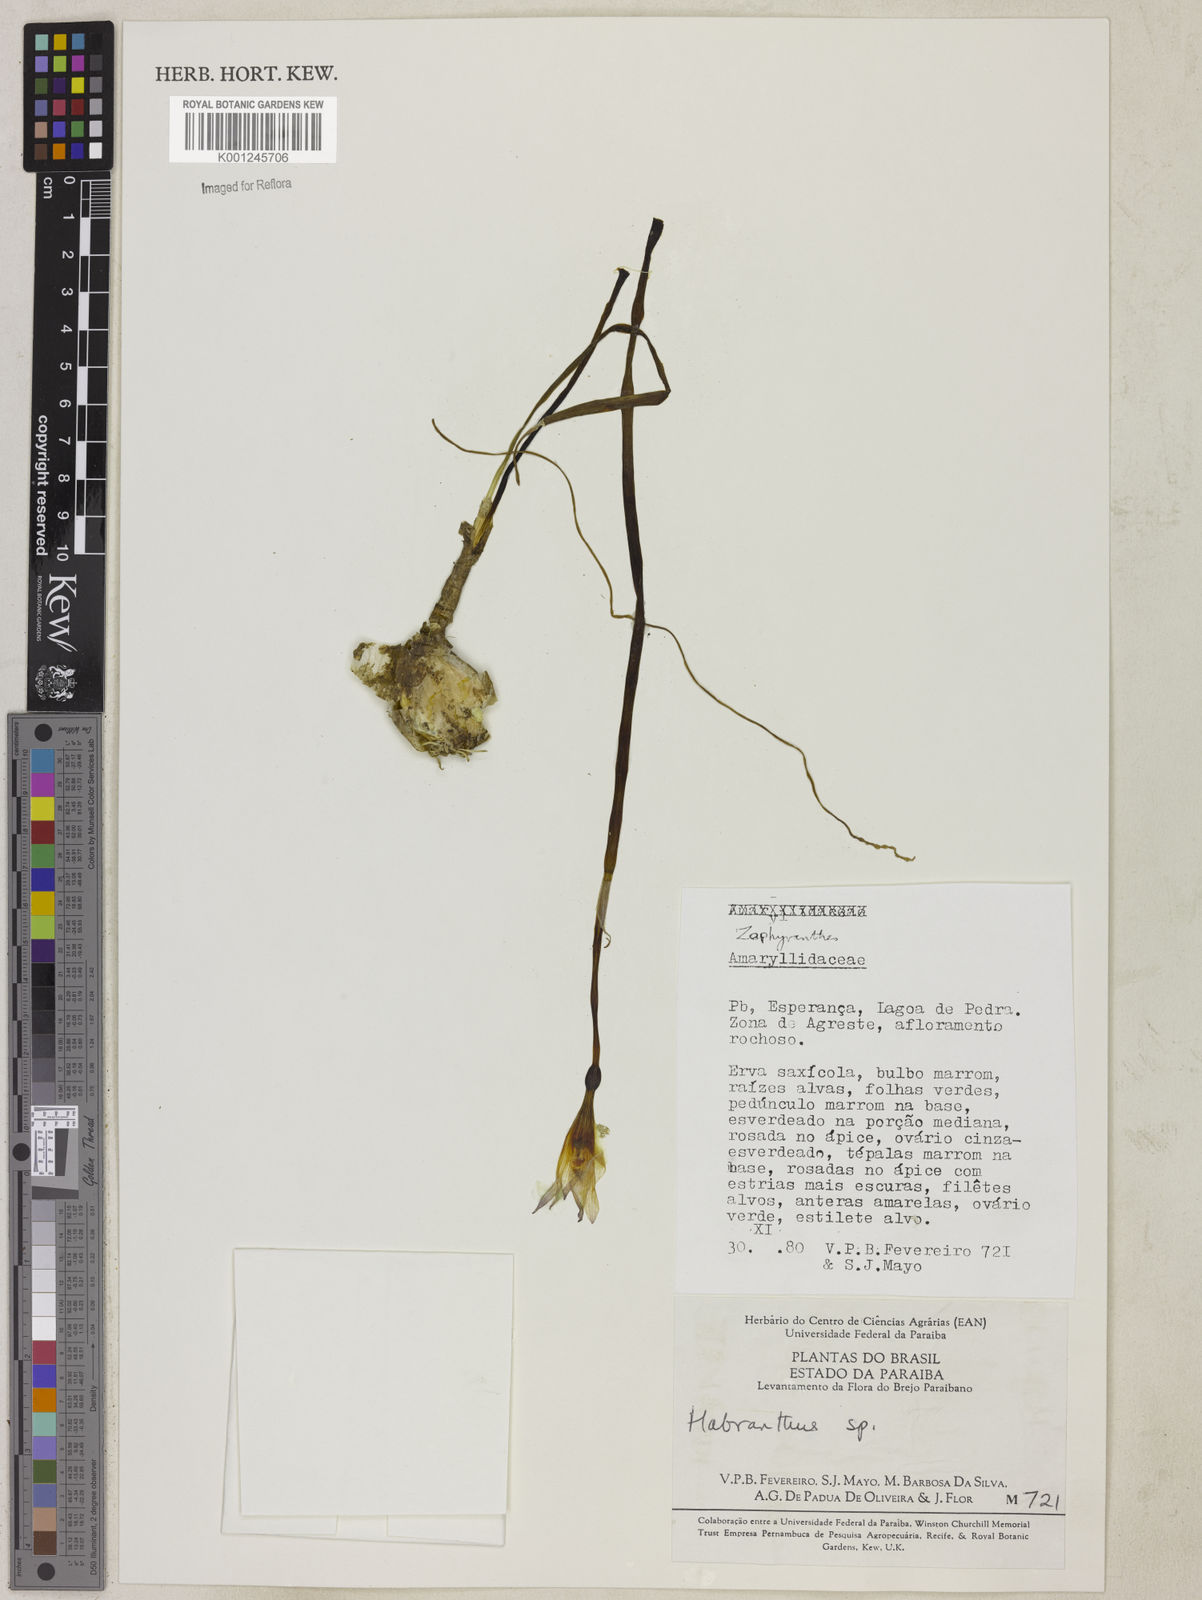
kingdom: Plantae
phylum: Tracheophyta
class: Liliopsida
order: Asparagales
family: Amaryllidaceae
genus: Zephyranthes
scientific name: Zephyranthes
